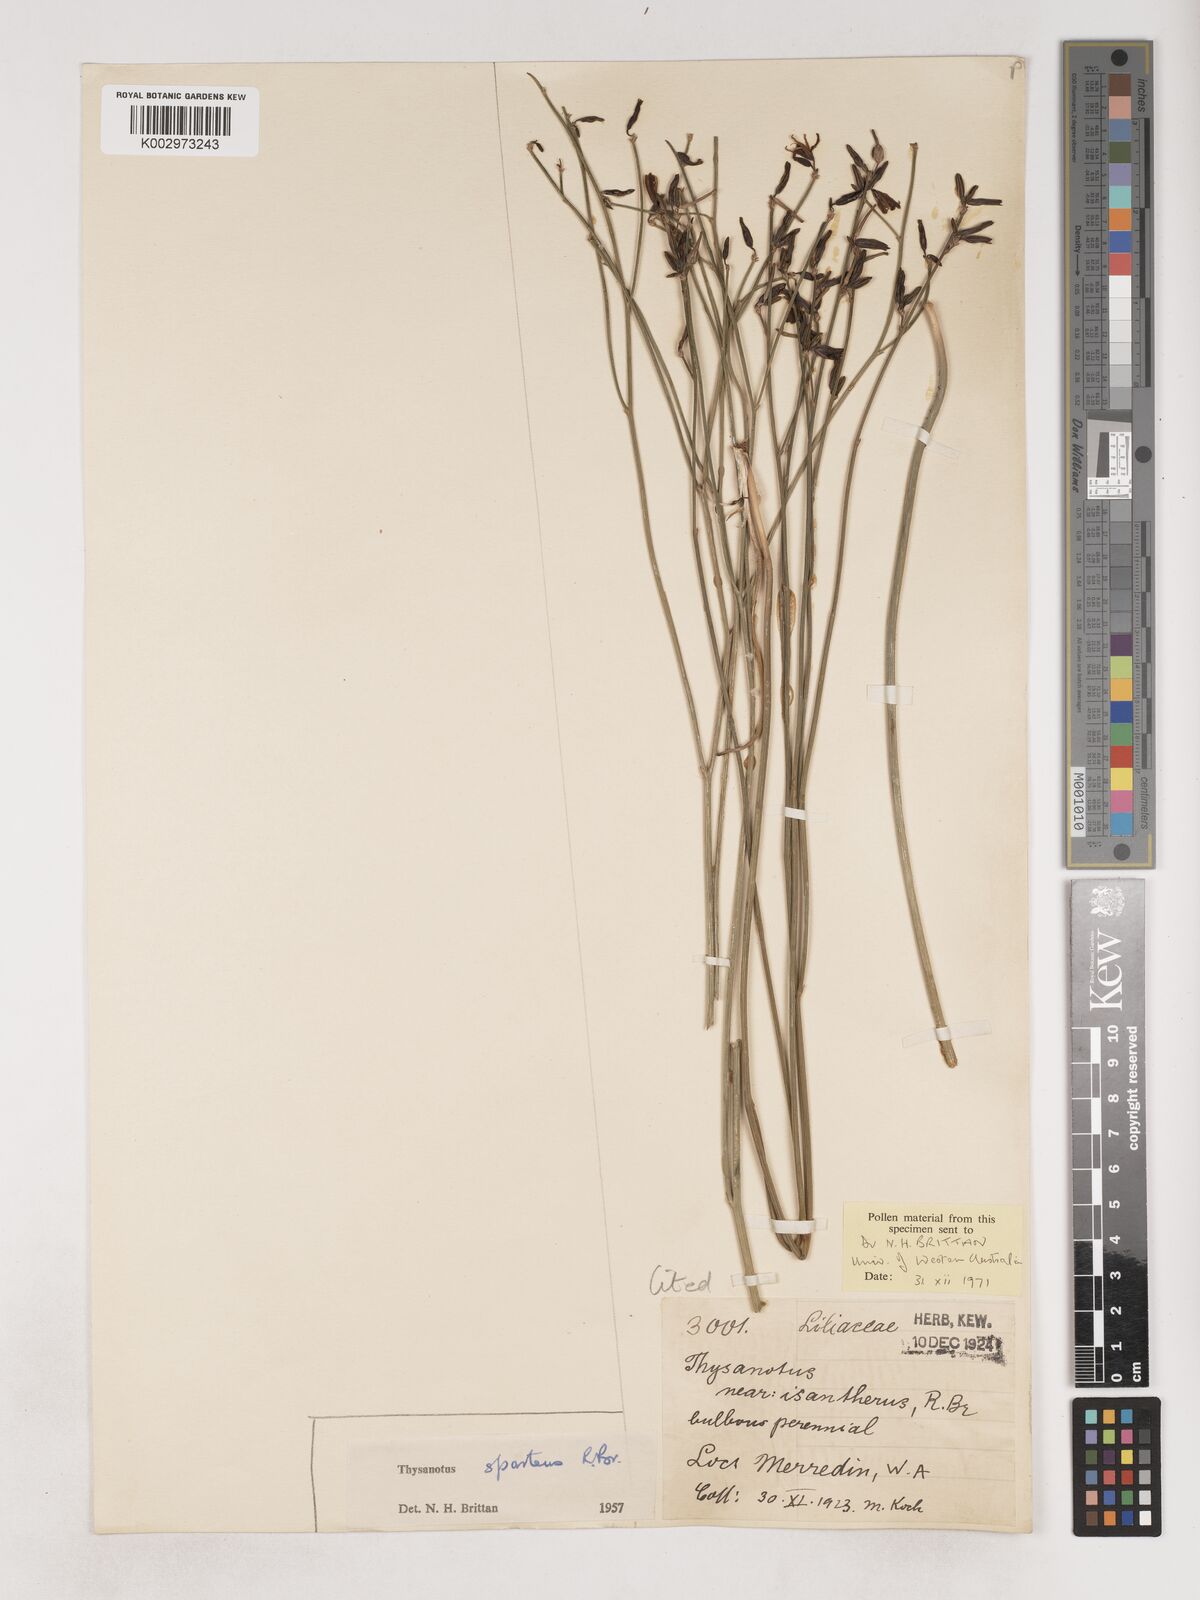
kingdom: Plantae
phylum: Tracheophyta
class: Liliopsida
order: Asparagales
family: Asparagaceae
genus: Thysanotus
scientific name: Thysanotus sparteus
